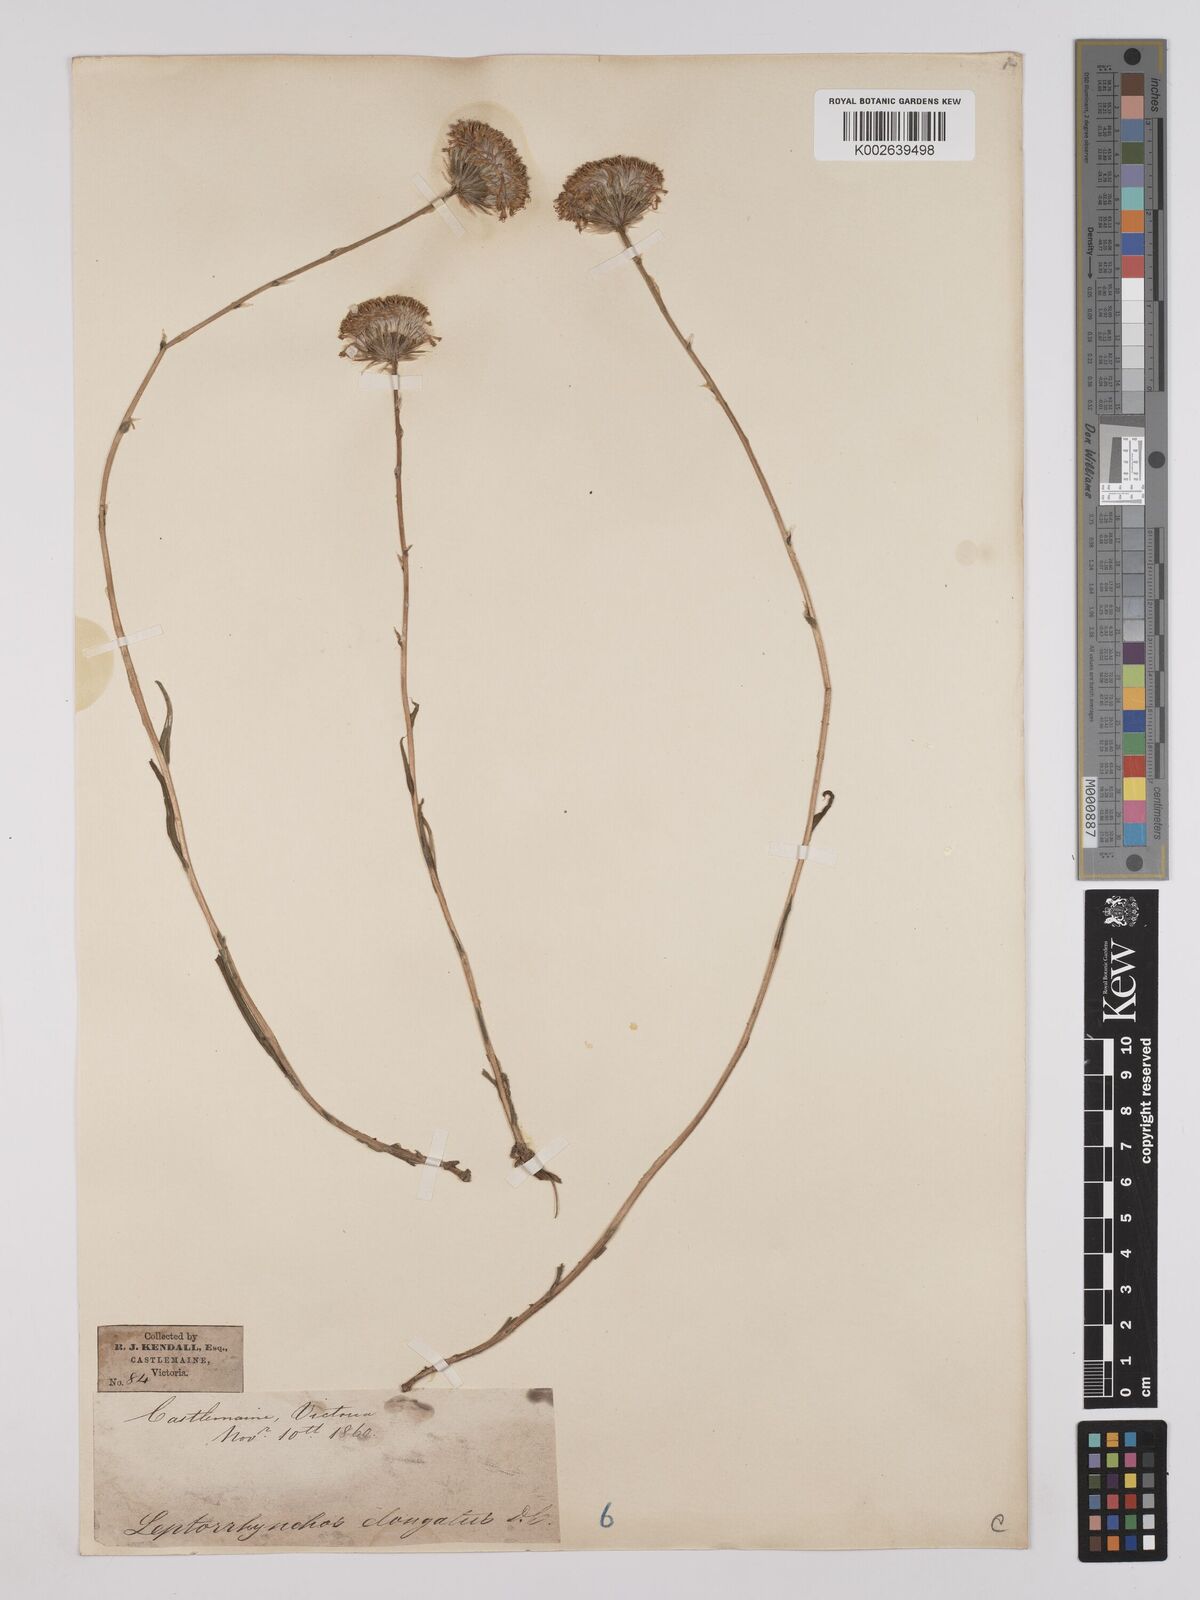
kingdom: Plantae
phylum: Tracheophyta
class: Magnoliopsida
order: Asterales
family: Asteraceae
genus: Leptorhynchos
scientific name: Leptorhynchos elongatus
